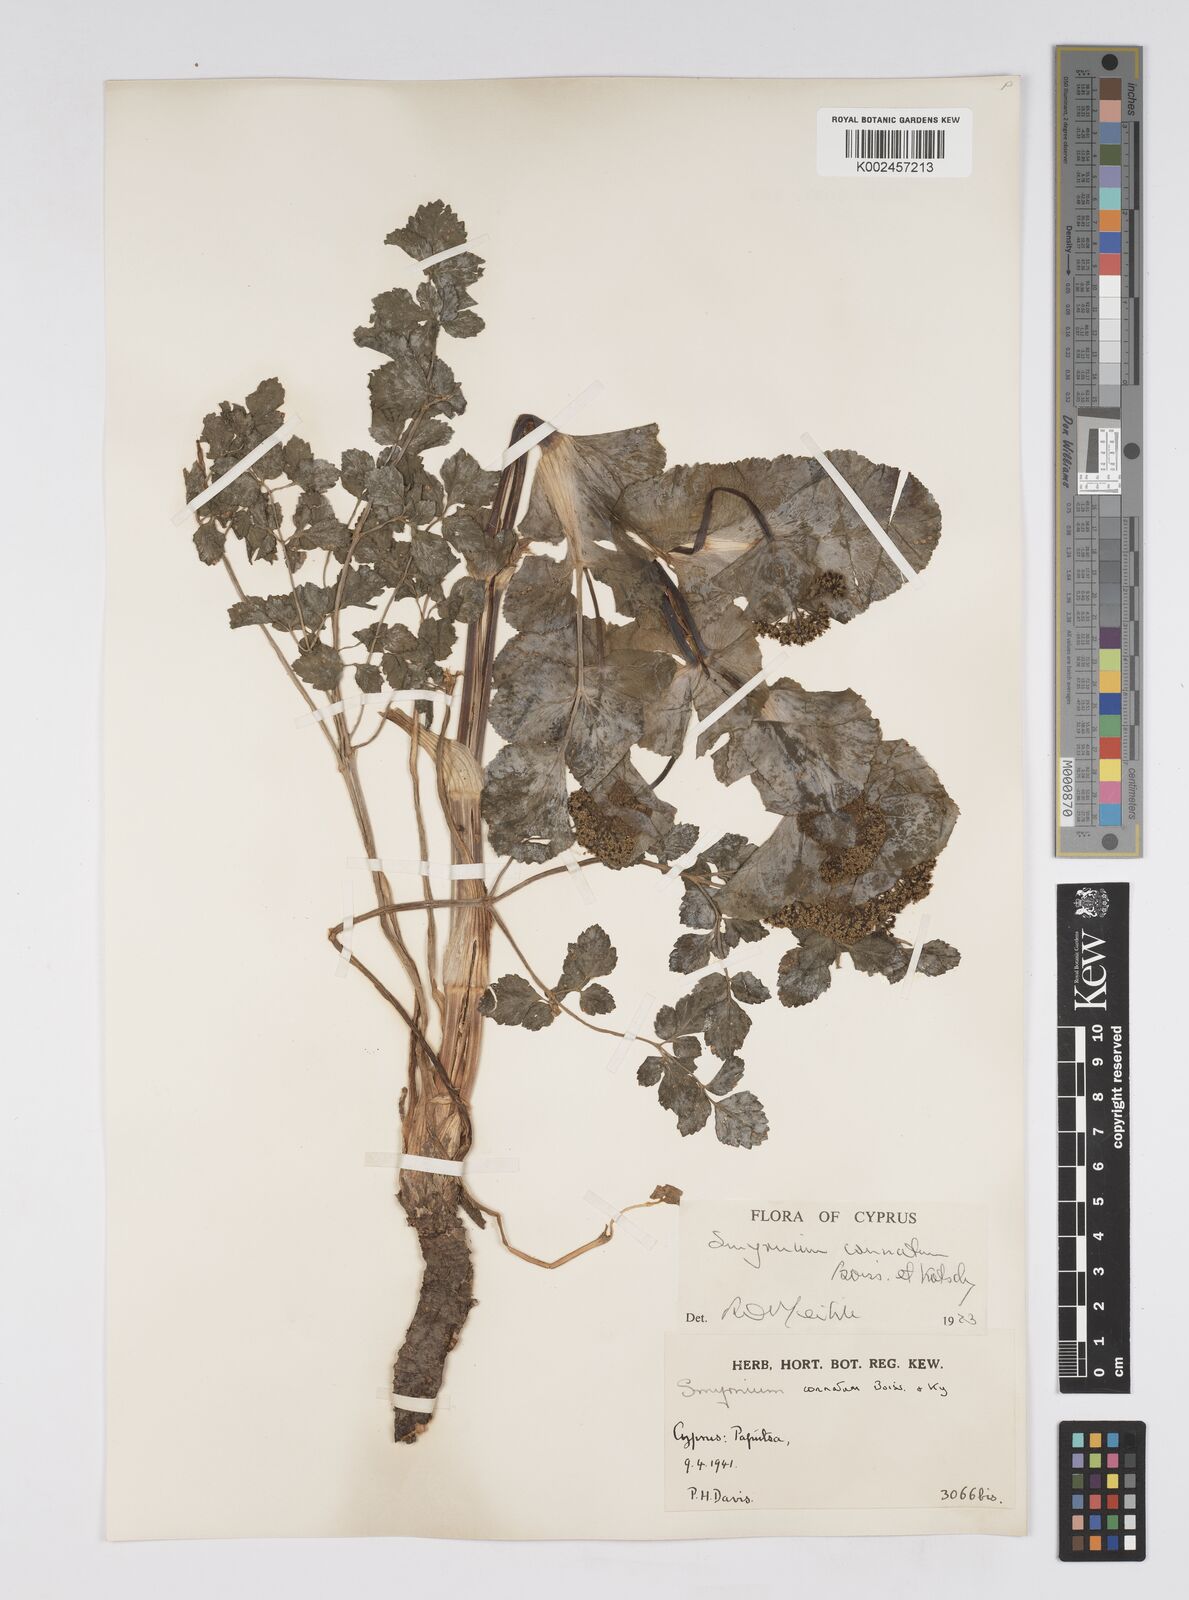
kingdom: Plantae
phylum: Tracheophyta
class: Magnoliopsida
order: Apiales
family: Apiaceae
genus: Smyrnium
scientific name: Smyrnium connatum
